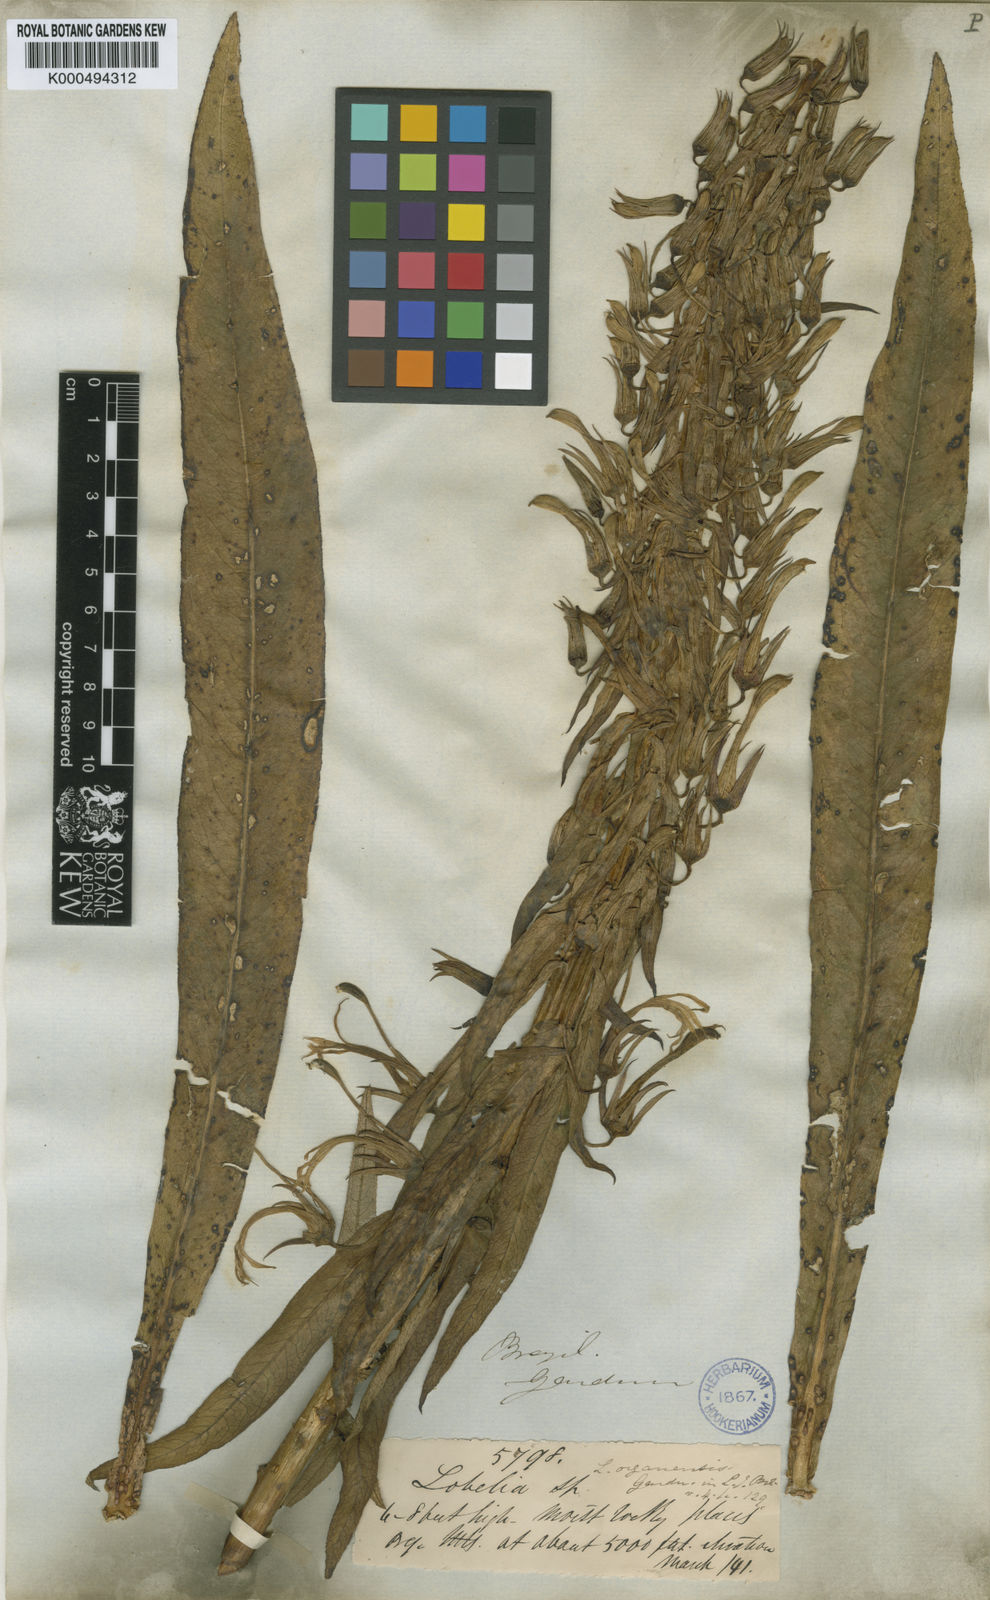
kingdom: Plantae
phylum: Tracheophyta
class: Magnoliopsida
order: Asterales
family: Campanulaceae
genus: Lobelia
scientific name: Lobelia organensis
